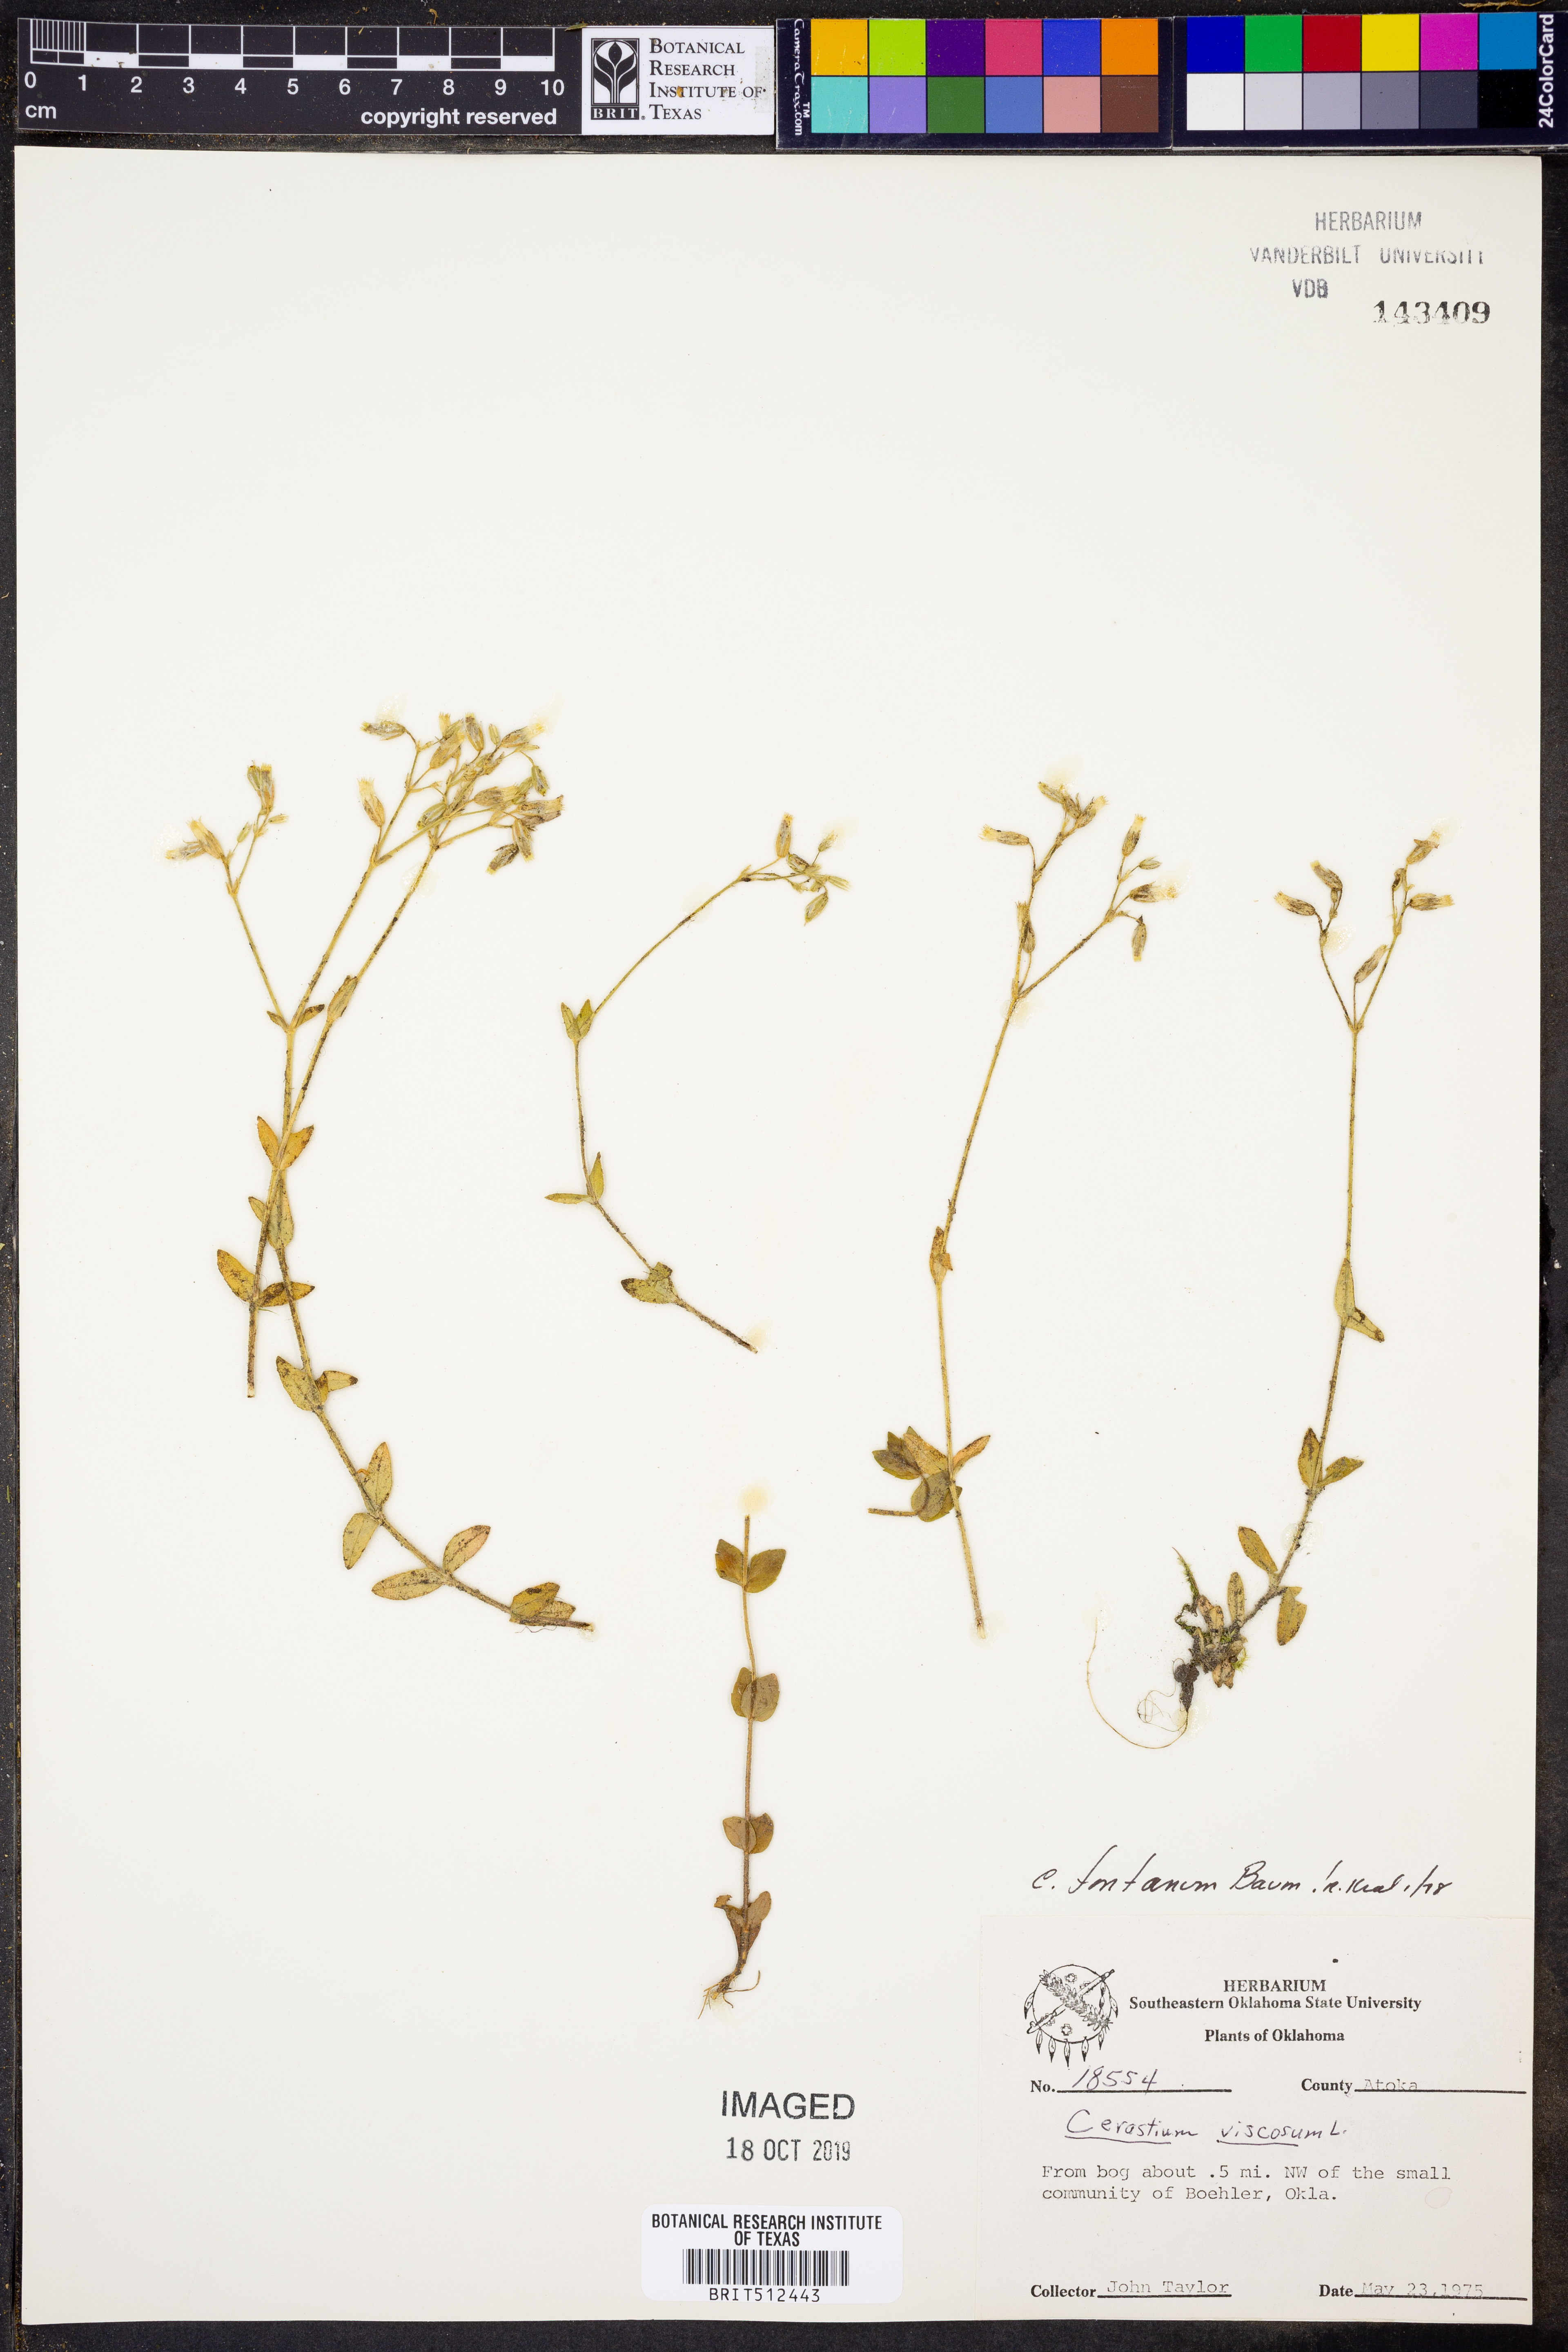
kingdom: Plantae
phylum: Tracheophyta
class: Magnoliopsida
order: Caryophyllales
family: Caryophyllaceae
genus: Cerastium
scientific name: Cerastium fontanum
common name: Common mouse-ear
